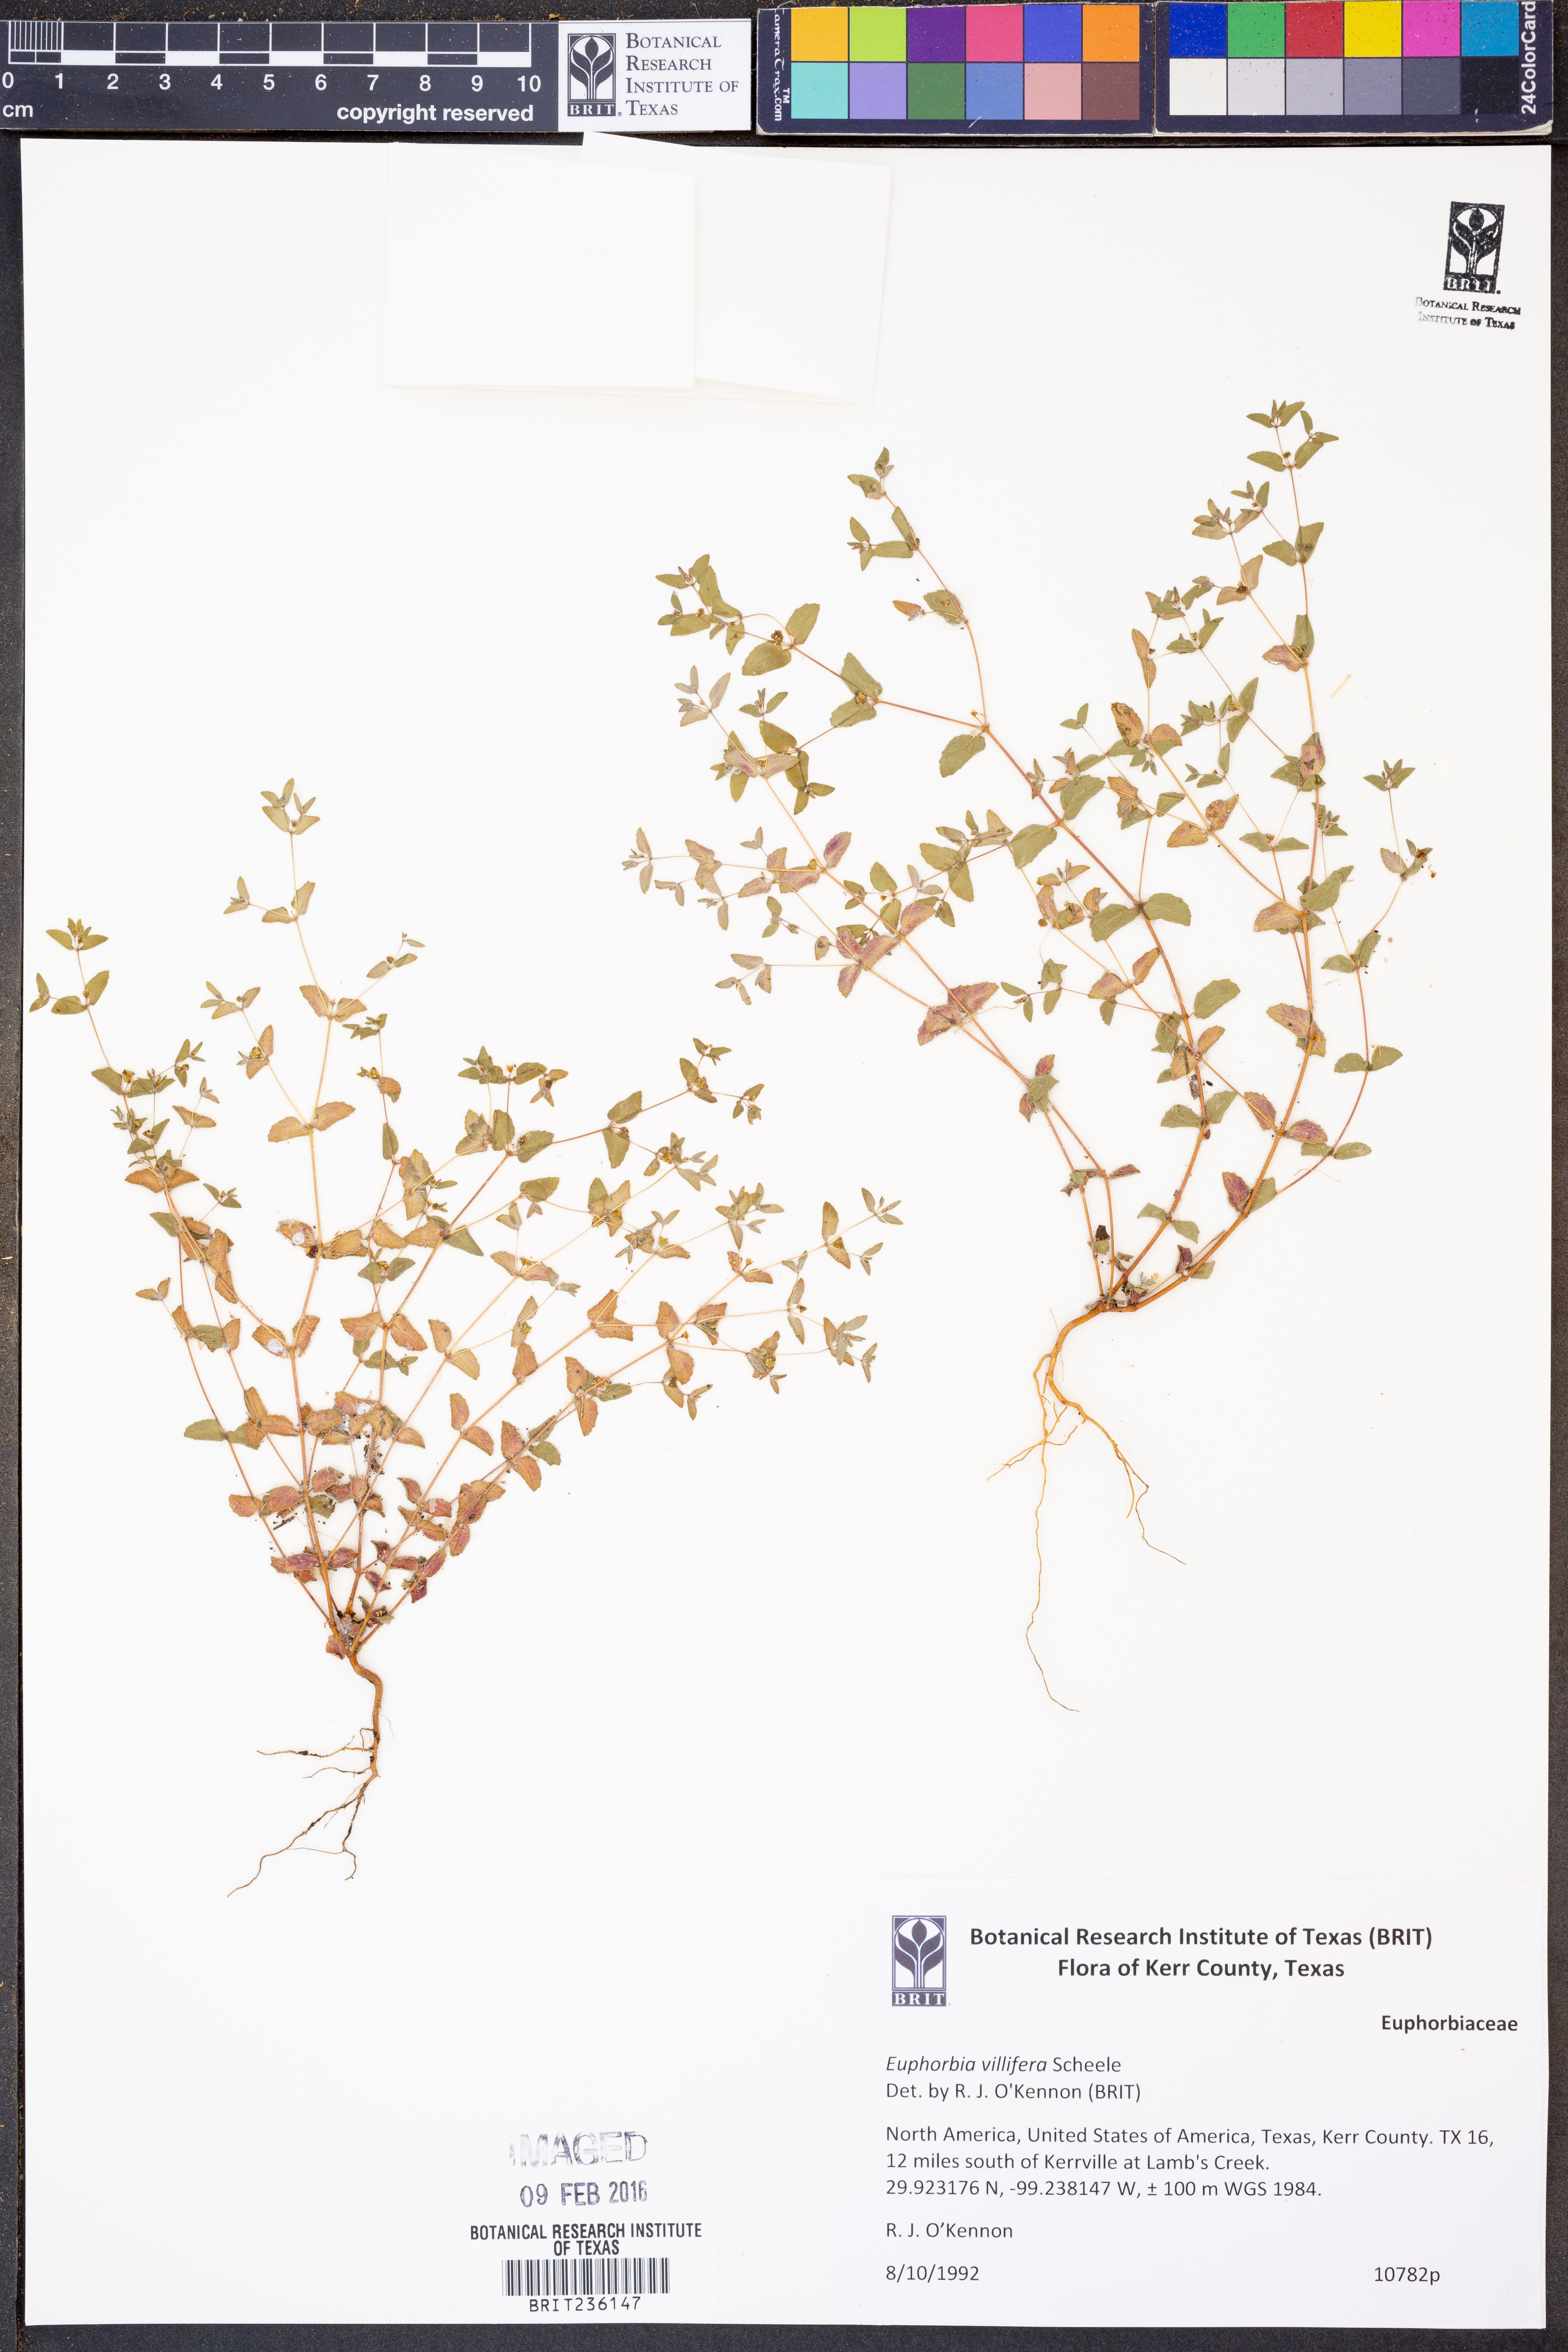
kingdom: Plantae
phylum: Tracheophyta
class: Magnoliopsida
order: Malpighiales
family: Euphorbiaceae
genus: Euphorbia
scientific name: Euphorbia micractina
